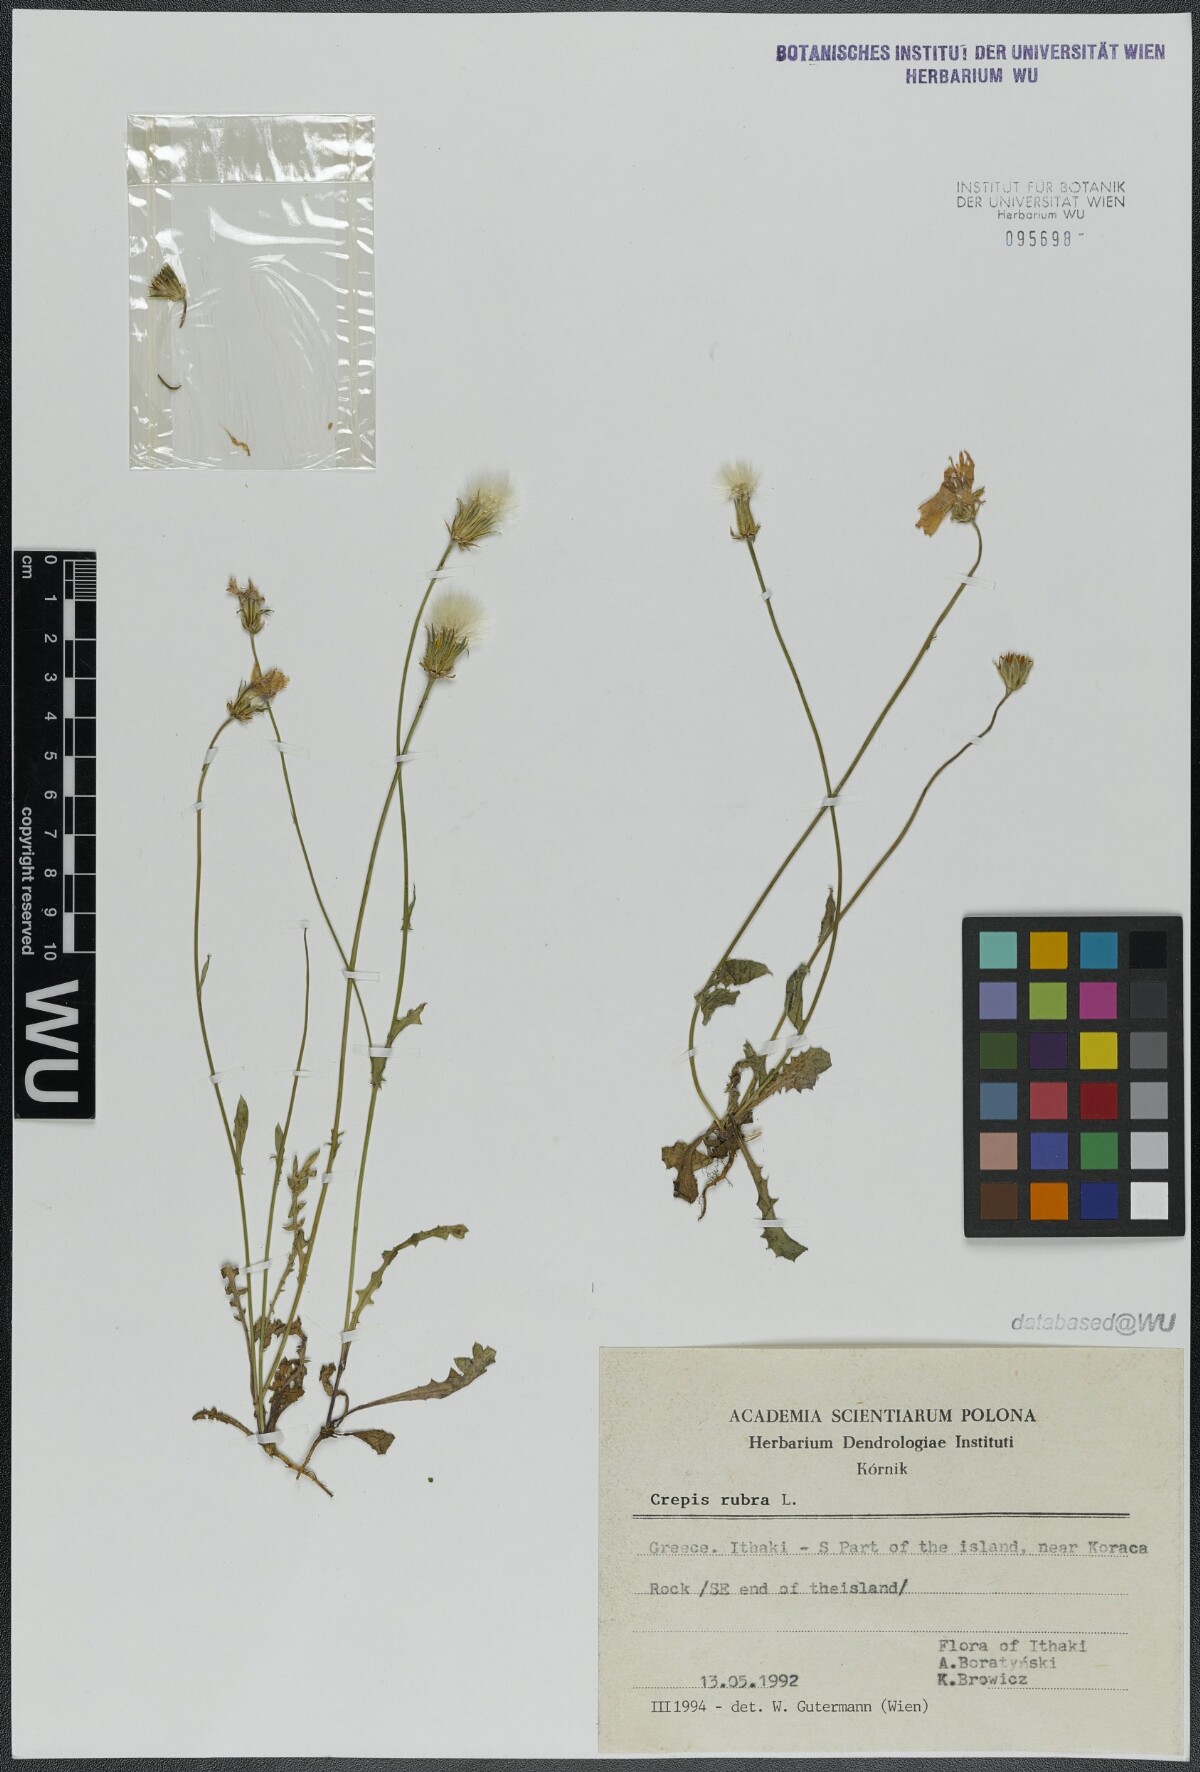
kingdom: Plantae
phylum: Tracheophyta
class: Magnoliopsida
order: Asterales
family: Asteraceae
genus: Crepis
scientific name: Crepis rubra
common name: Pink hawk's-beard
